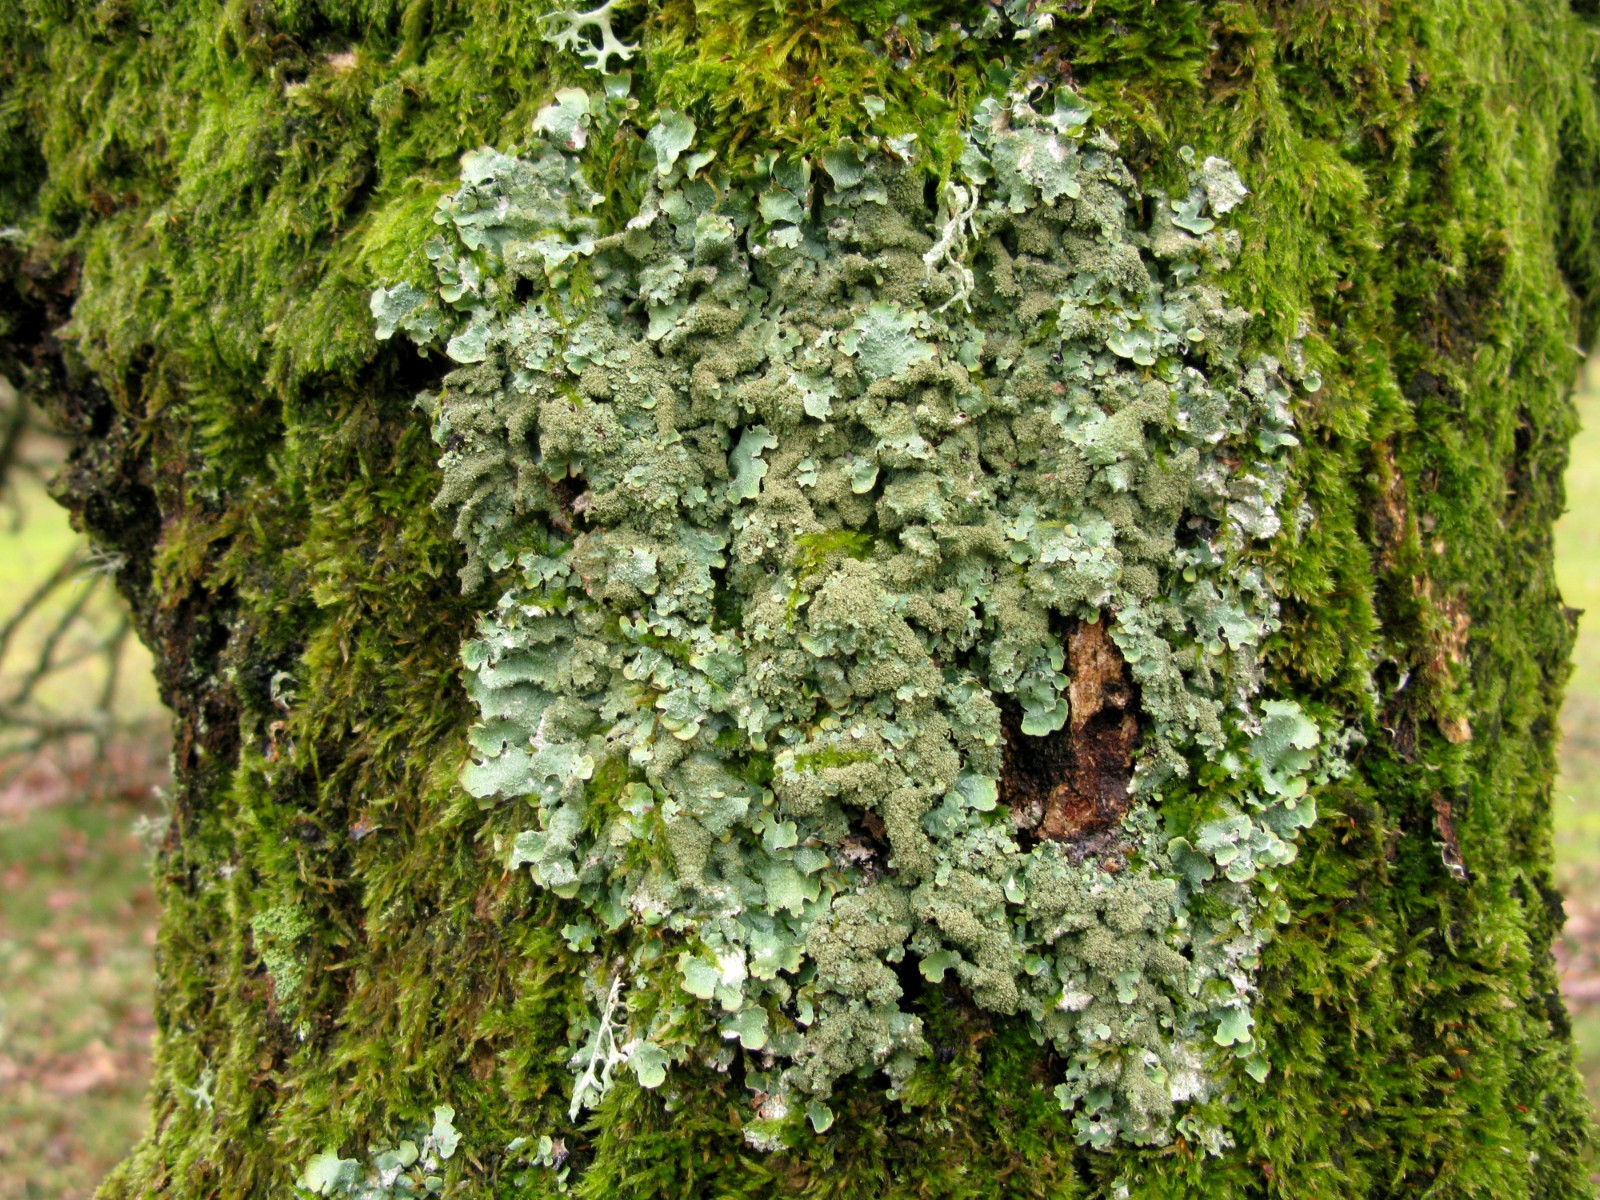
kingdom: Fungi
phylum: Ascomycota
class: Lecanoromycetes
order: Lecanorales
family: Parmeliaceae
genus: Parmelia
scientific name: Parmelia ernstiae
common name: rimstift-skållav
